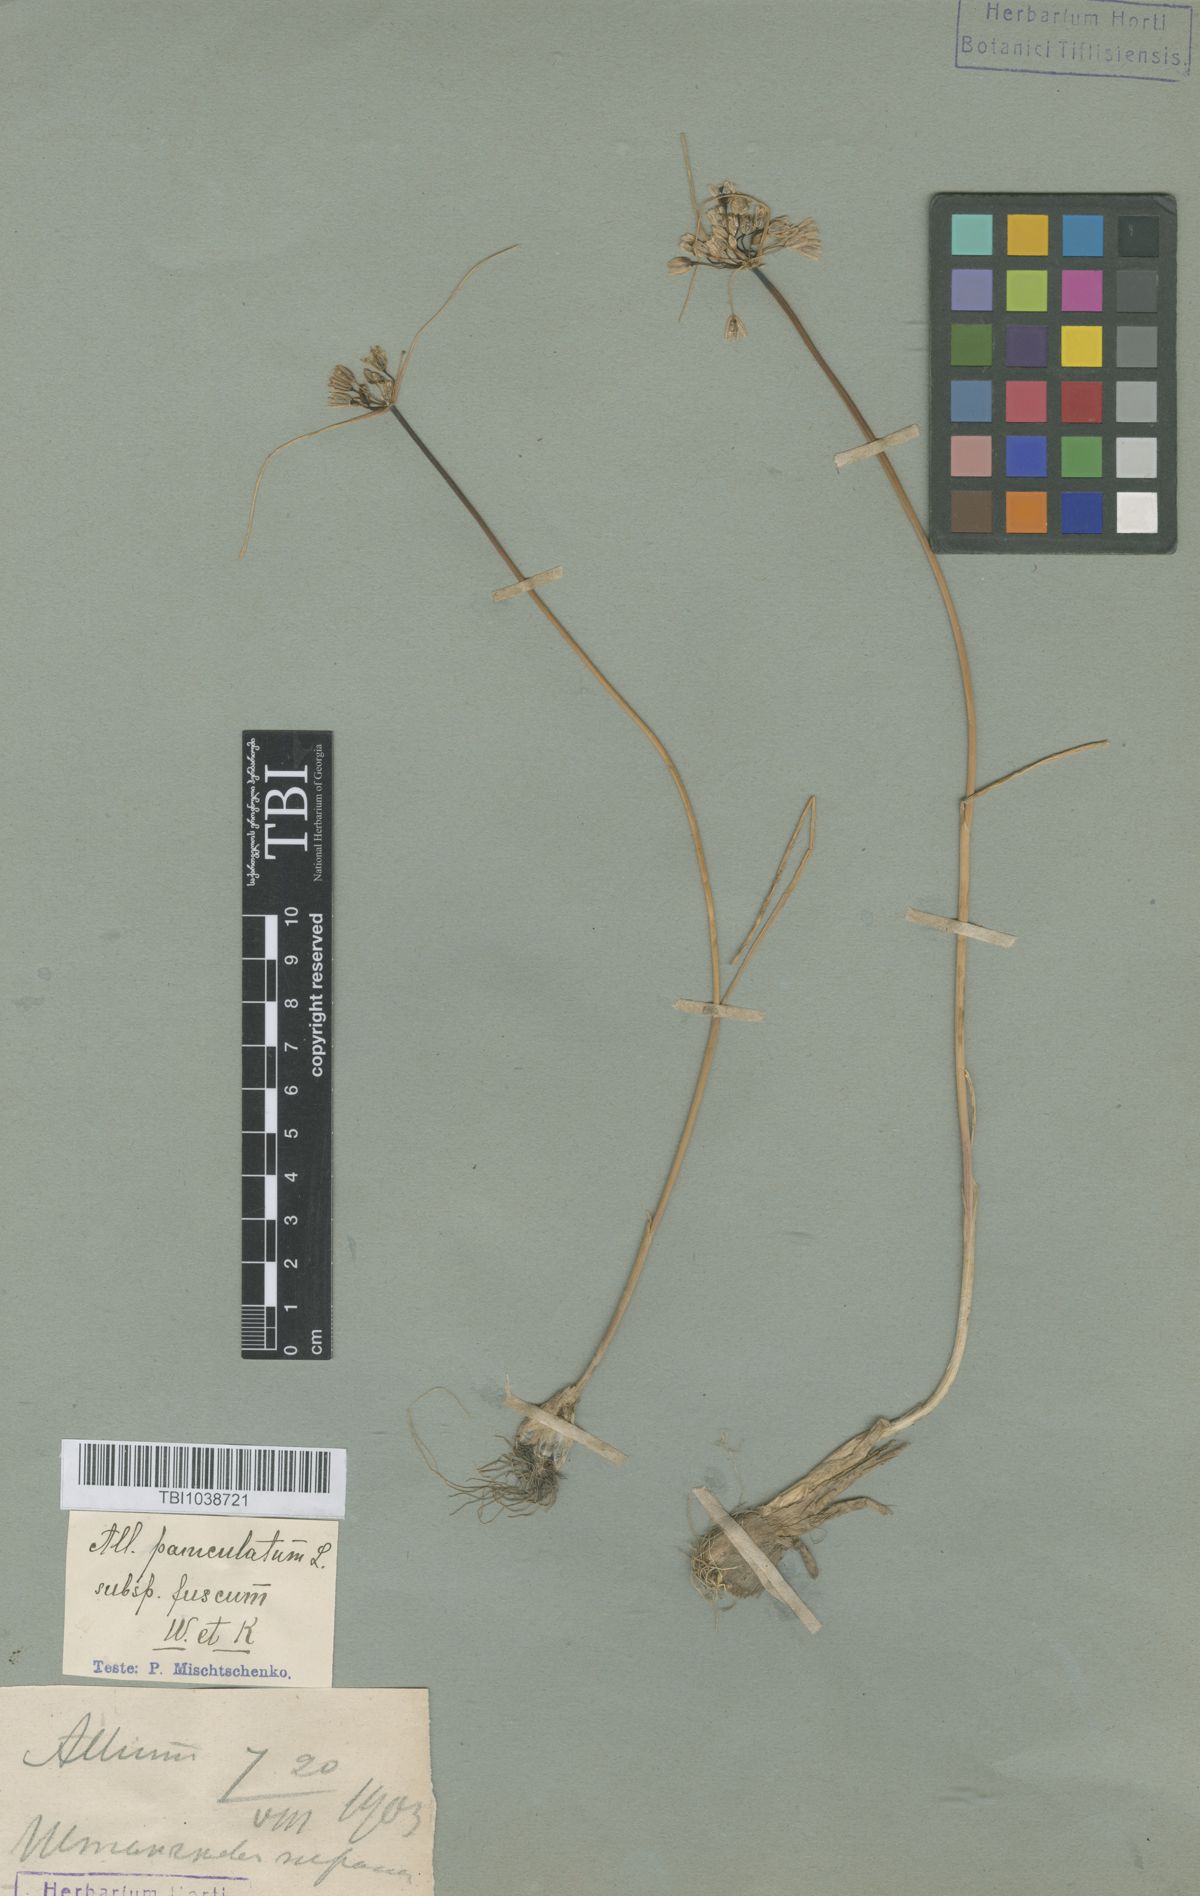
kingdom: Plantae
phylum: Tracheophyta
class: Liliopsida
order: Asparagales
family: Amaryllidaceae
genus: Allium
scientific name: Allium fuscum
